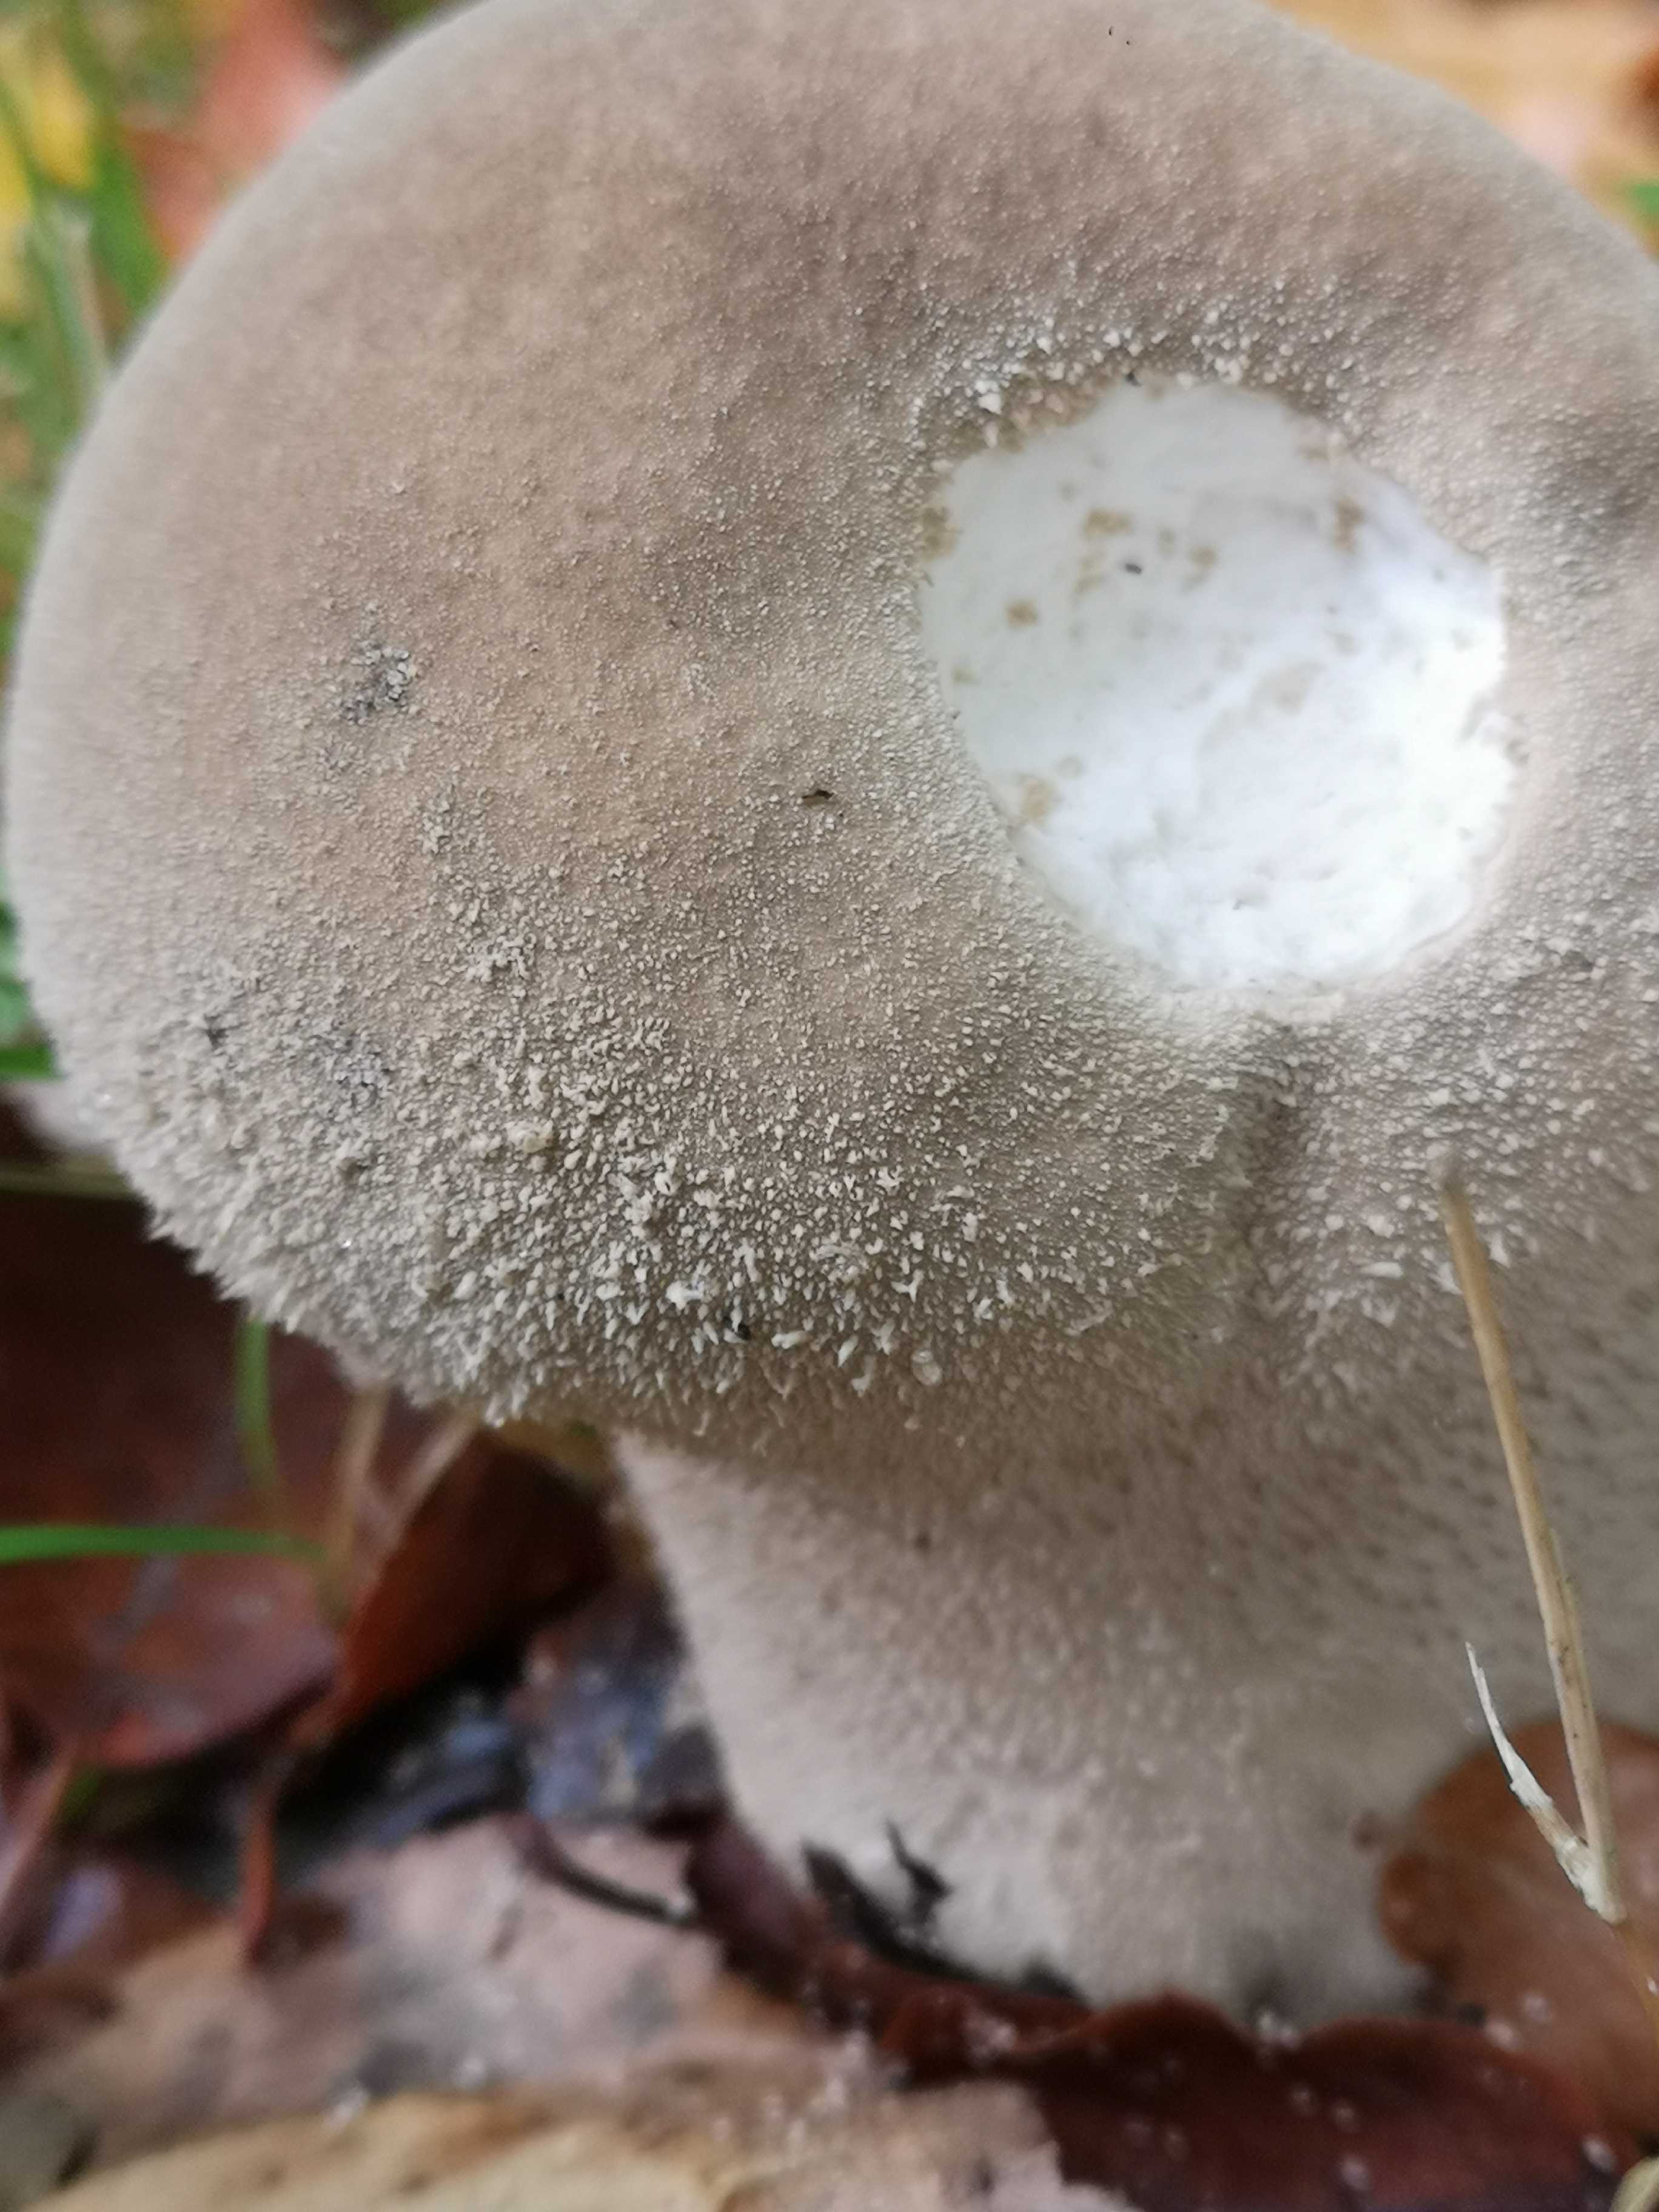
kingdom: Fungi
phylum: Basidiomycota
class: Agaricomycetes
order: Agaricales
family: Lycoperdaceae
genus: Lycoperdon
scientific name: Lycoperdon excipuliforme
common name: højstokket støvbold
